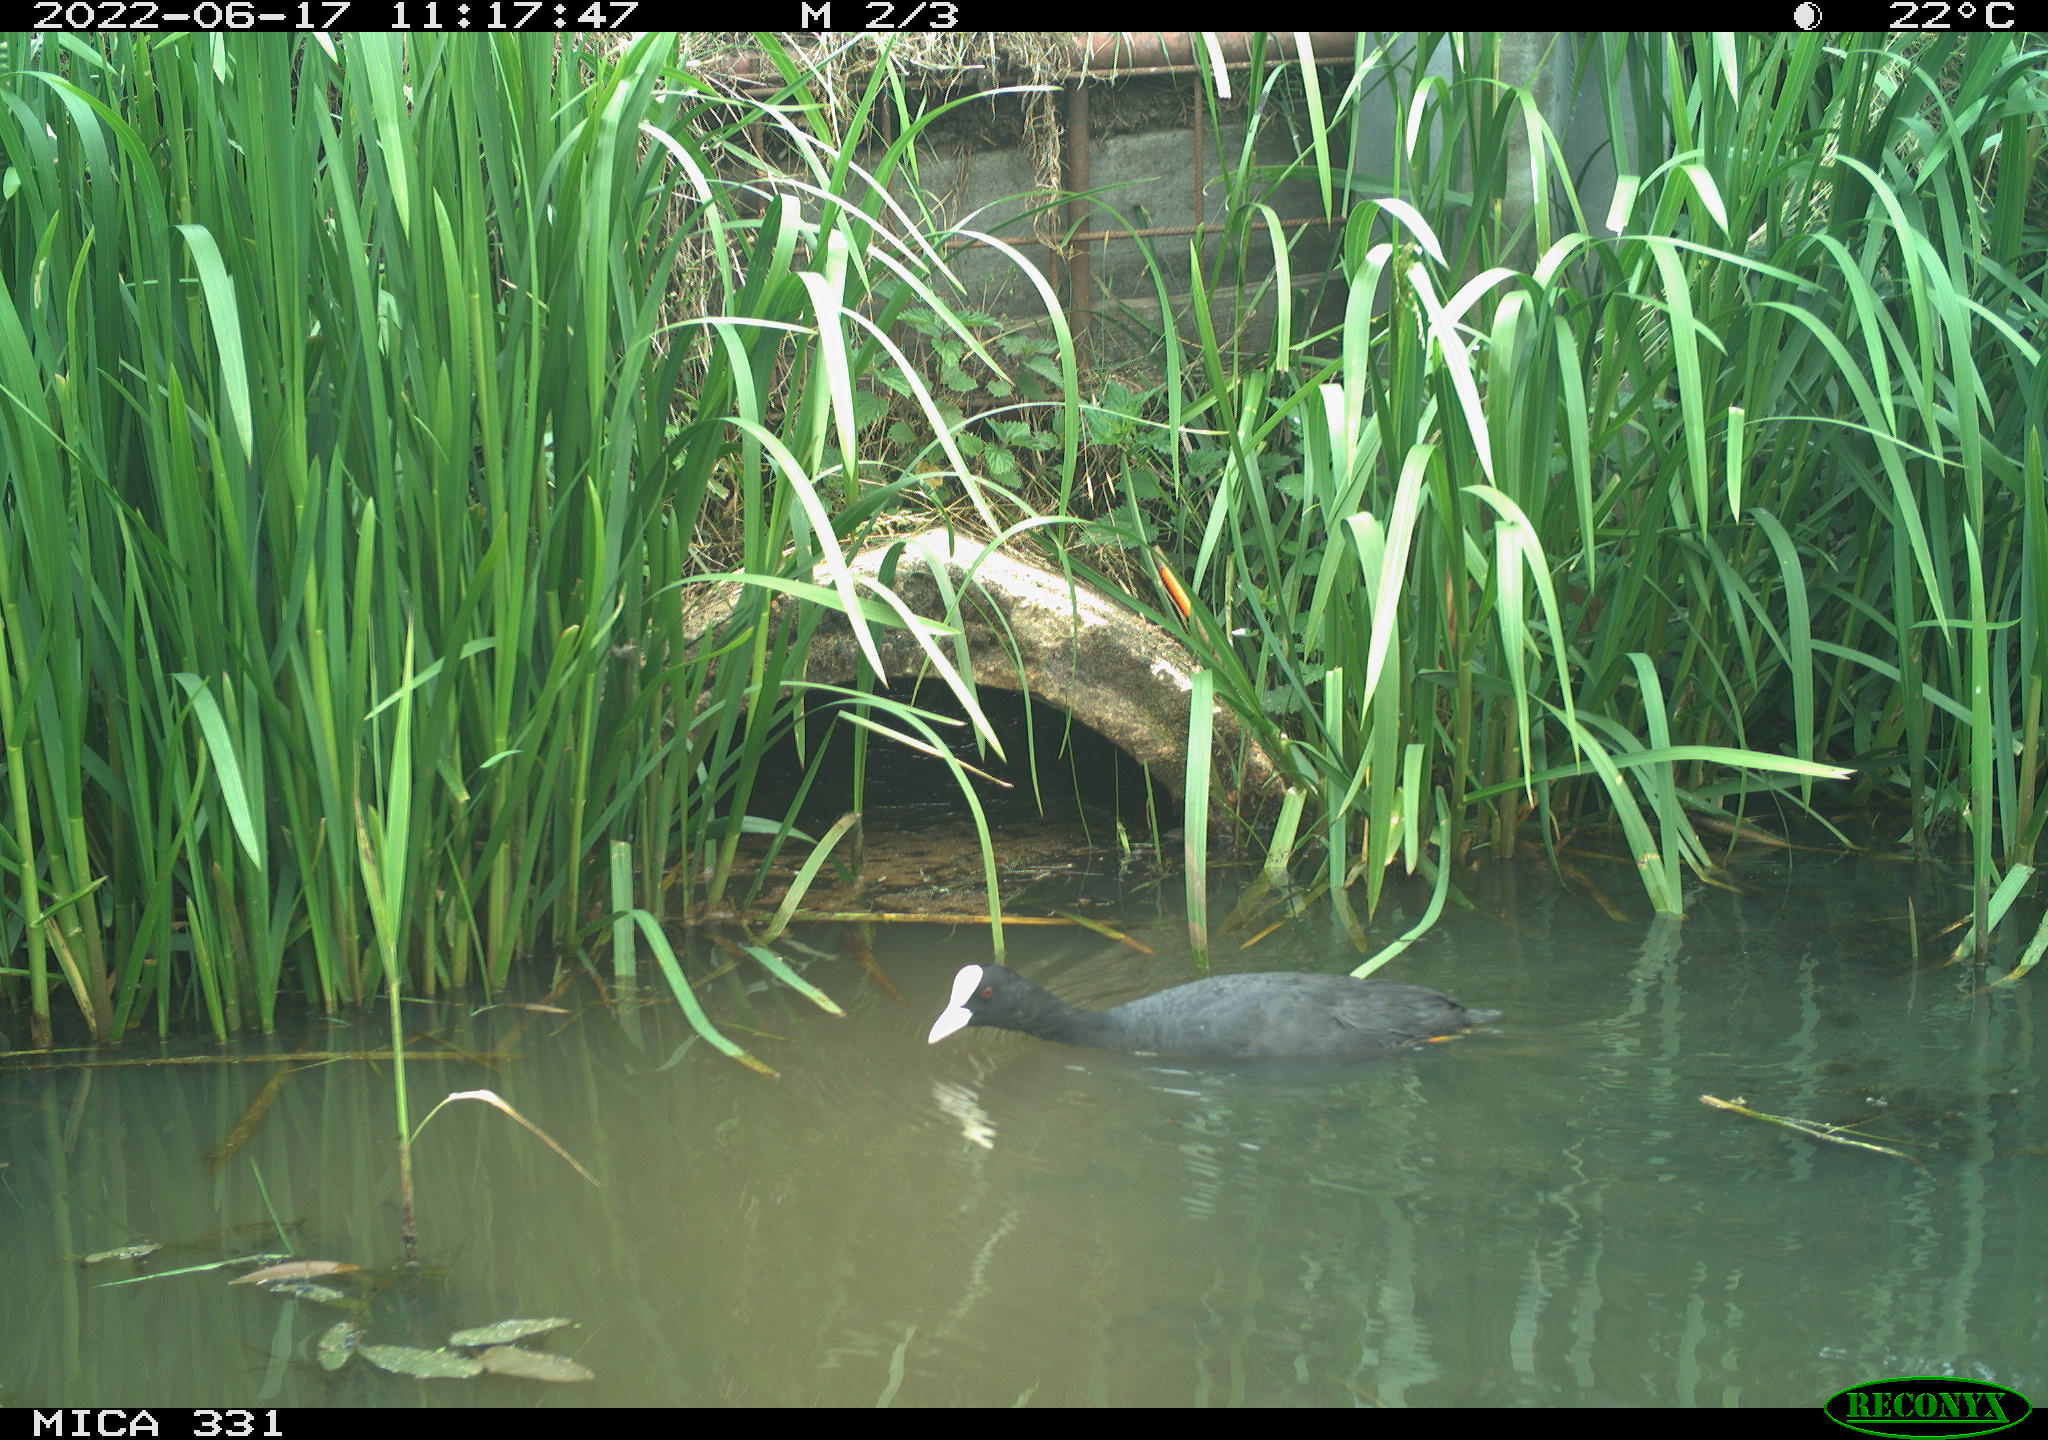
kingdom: Animalia
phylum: Chordata
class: Aves
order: Gruiformes
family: Rallidae
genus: Fulica
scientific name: Fulica atra
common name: Eurasian coot
